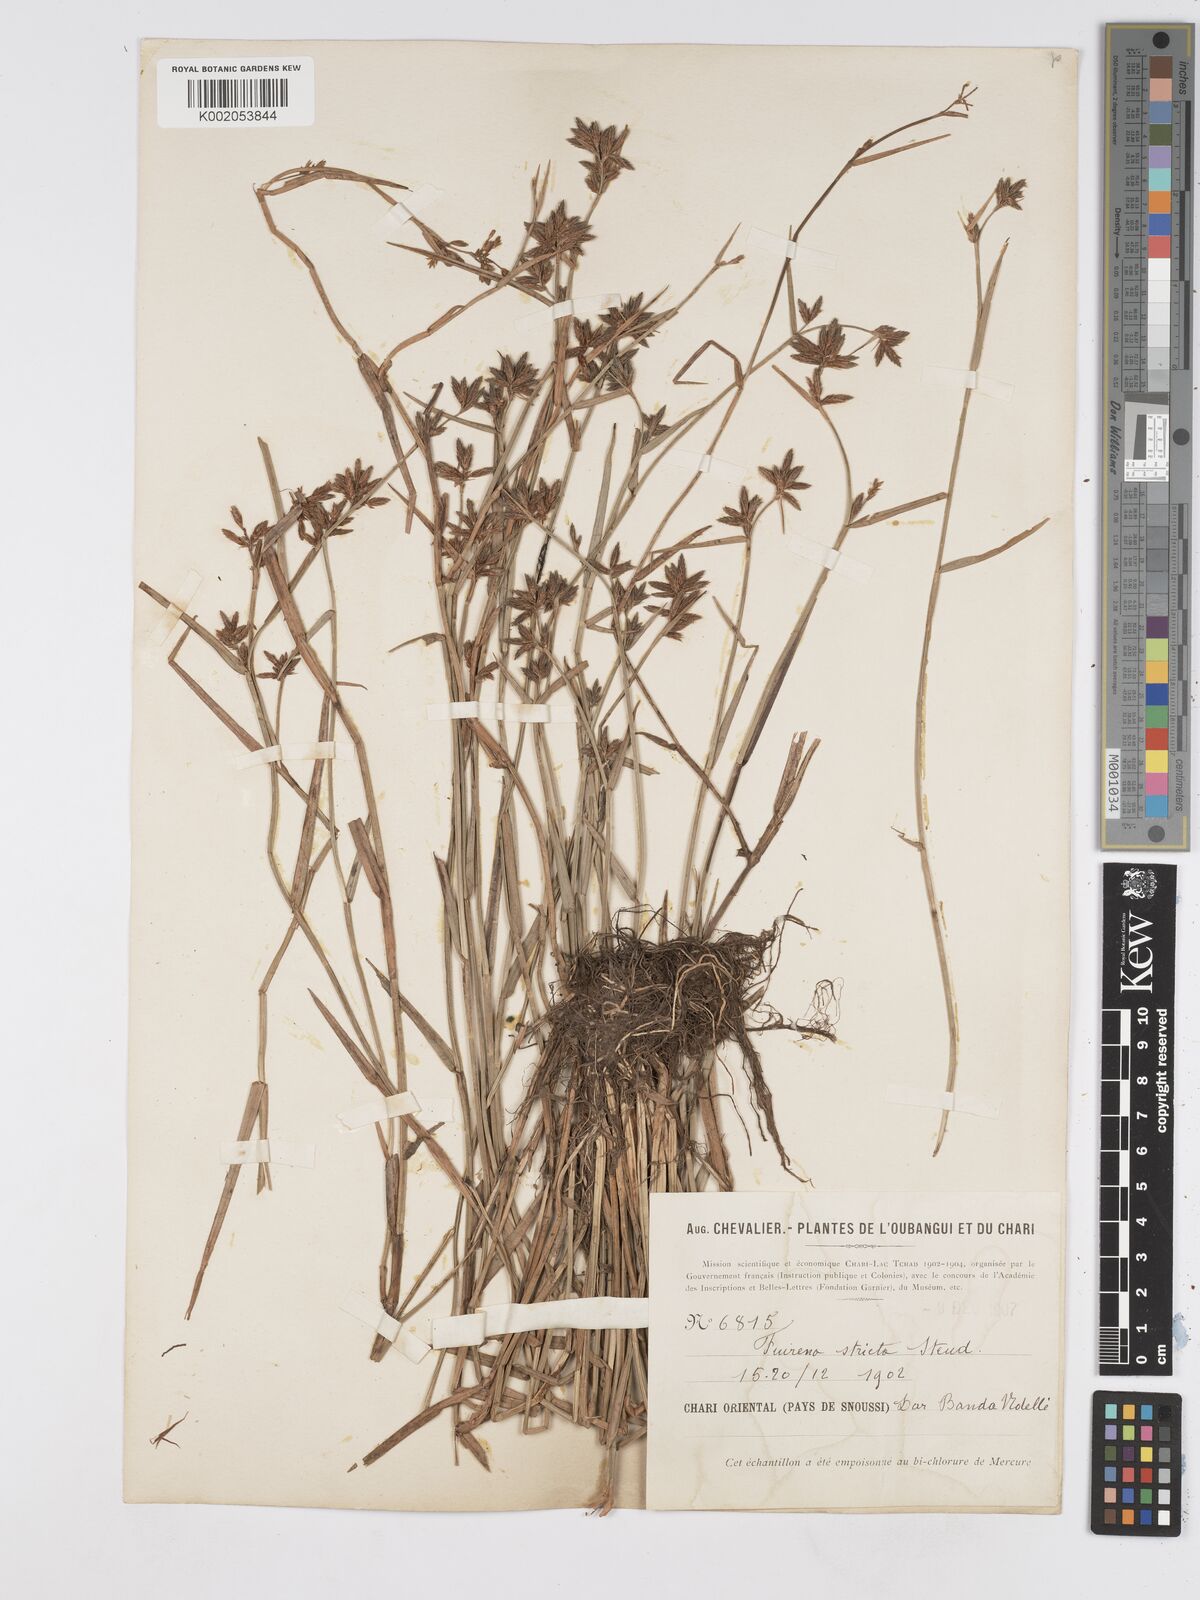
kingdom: Plantae
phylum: Tracheophyta
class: Liliopsida
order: Poales
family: Cyperaceae
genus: Fuirena
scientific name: Fuirena stricta
